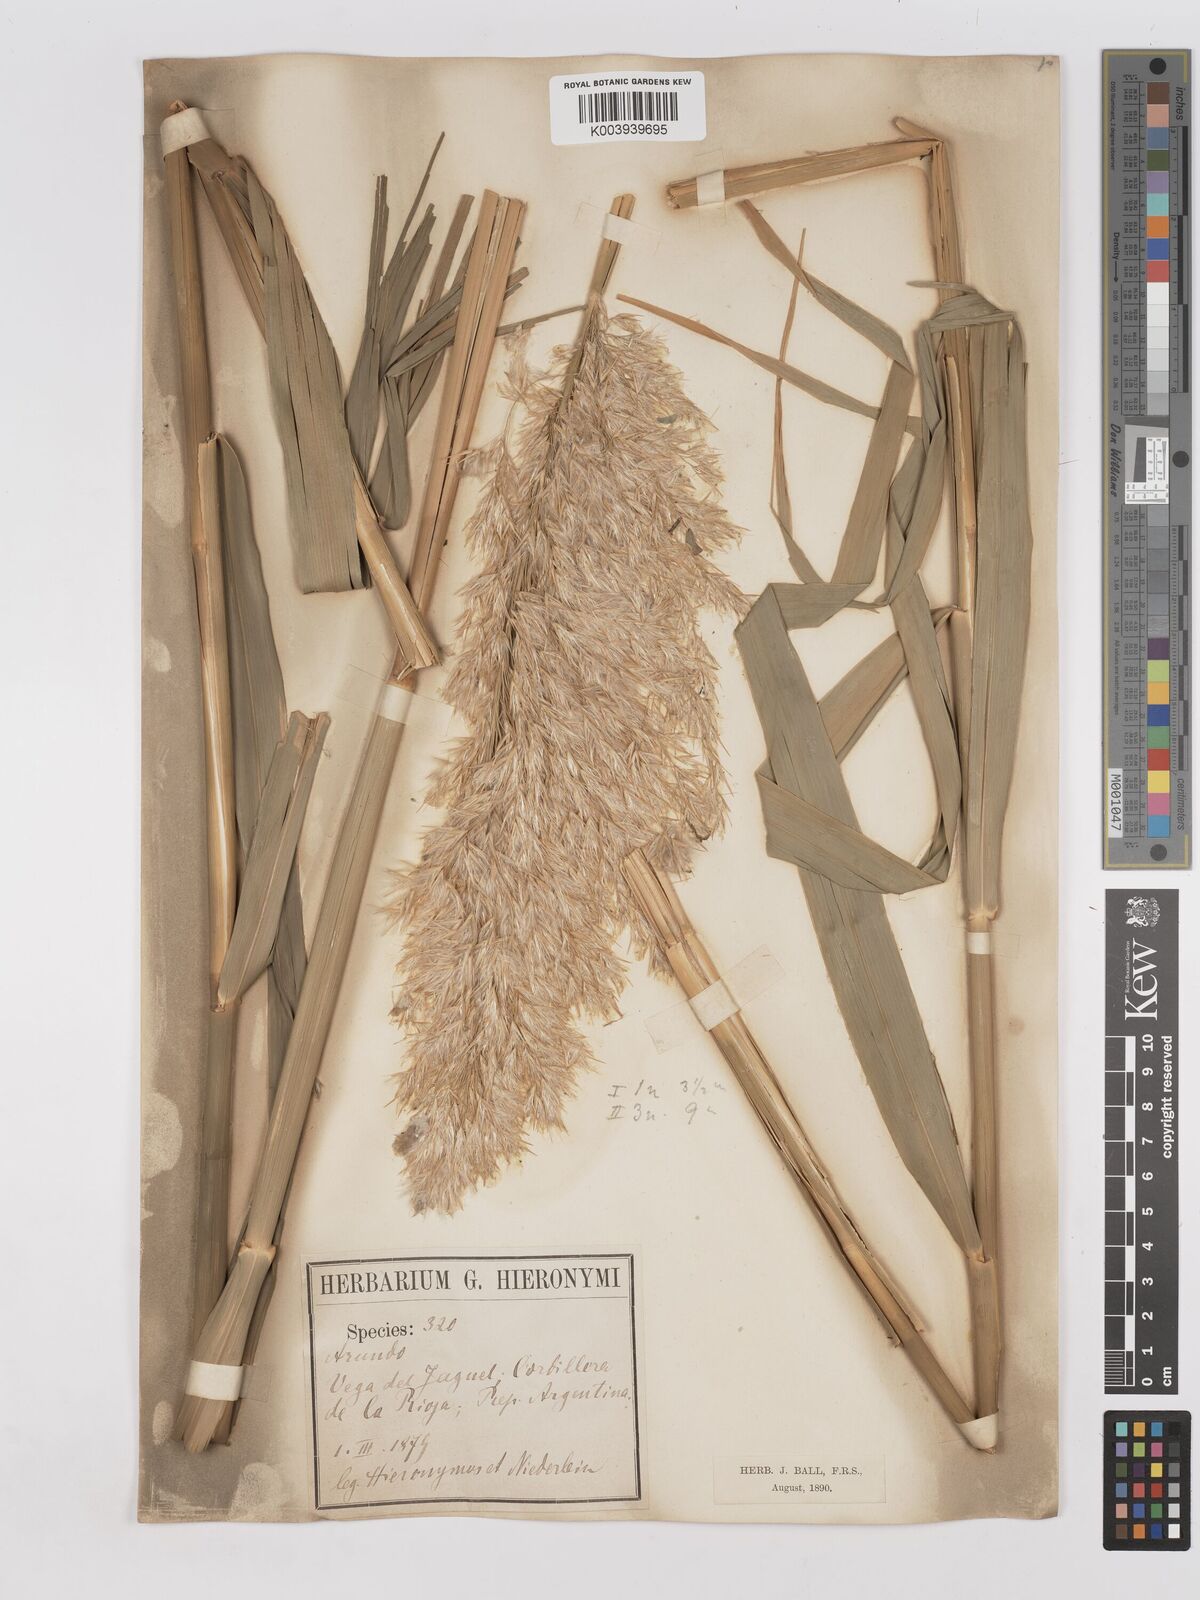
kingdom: Plantae
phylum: Tracheophyta
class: Liliopsida
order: Poales
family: Poaceae
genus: Phragmites
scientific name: Phragmites australis
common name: Common reed
